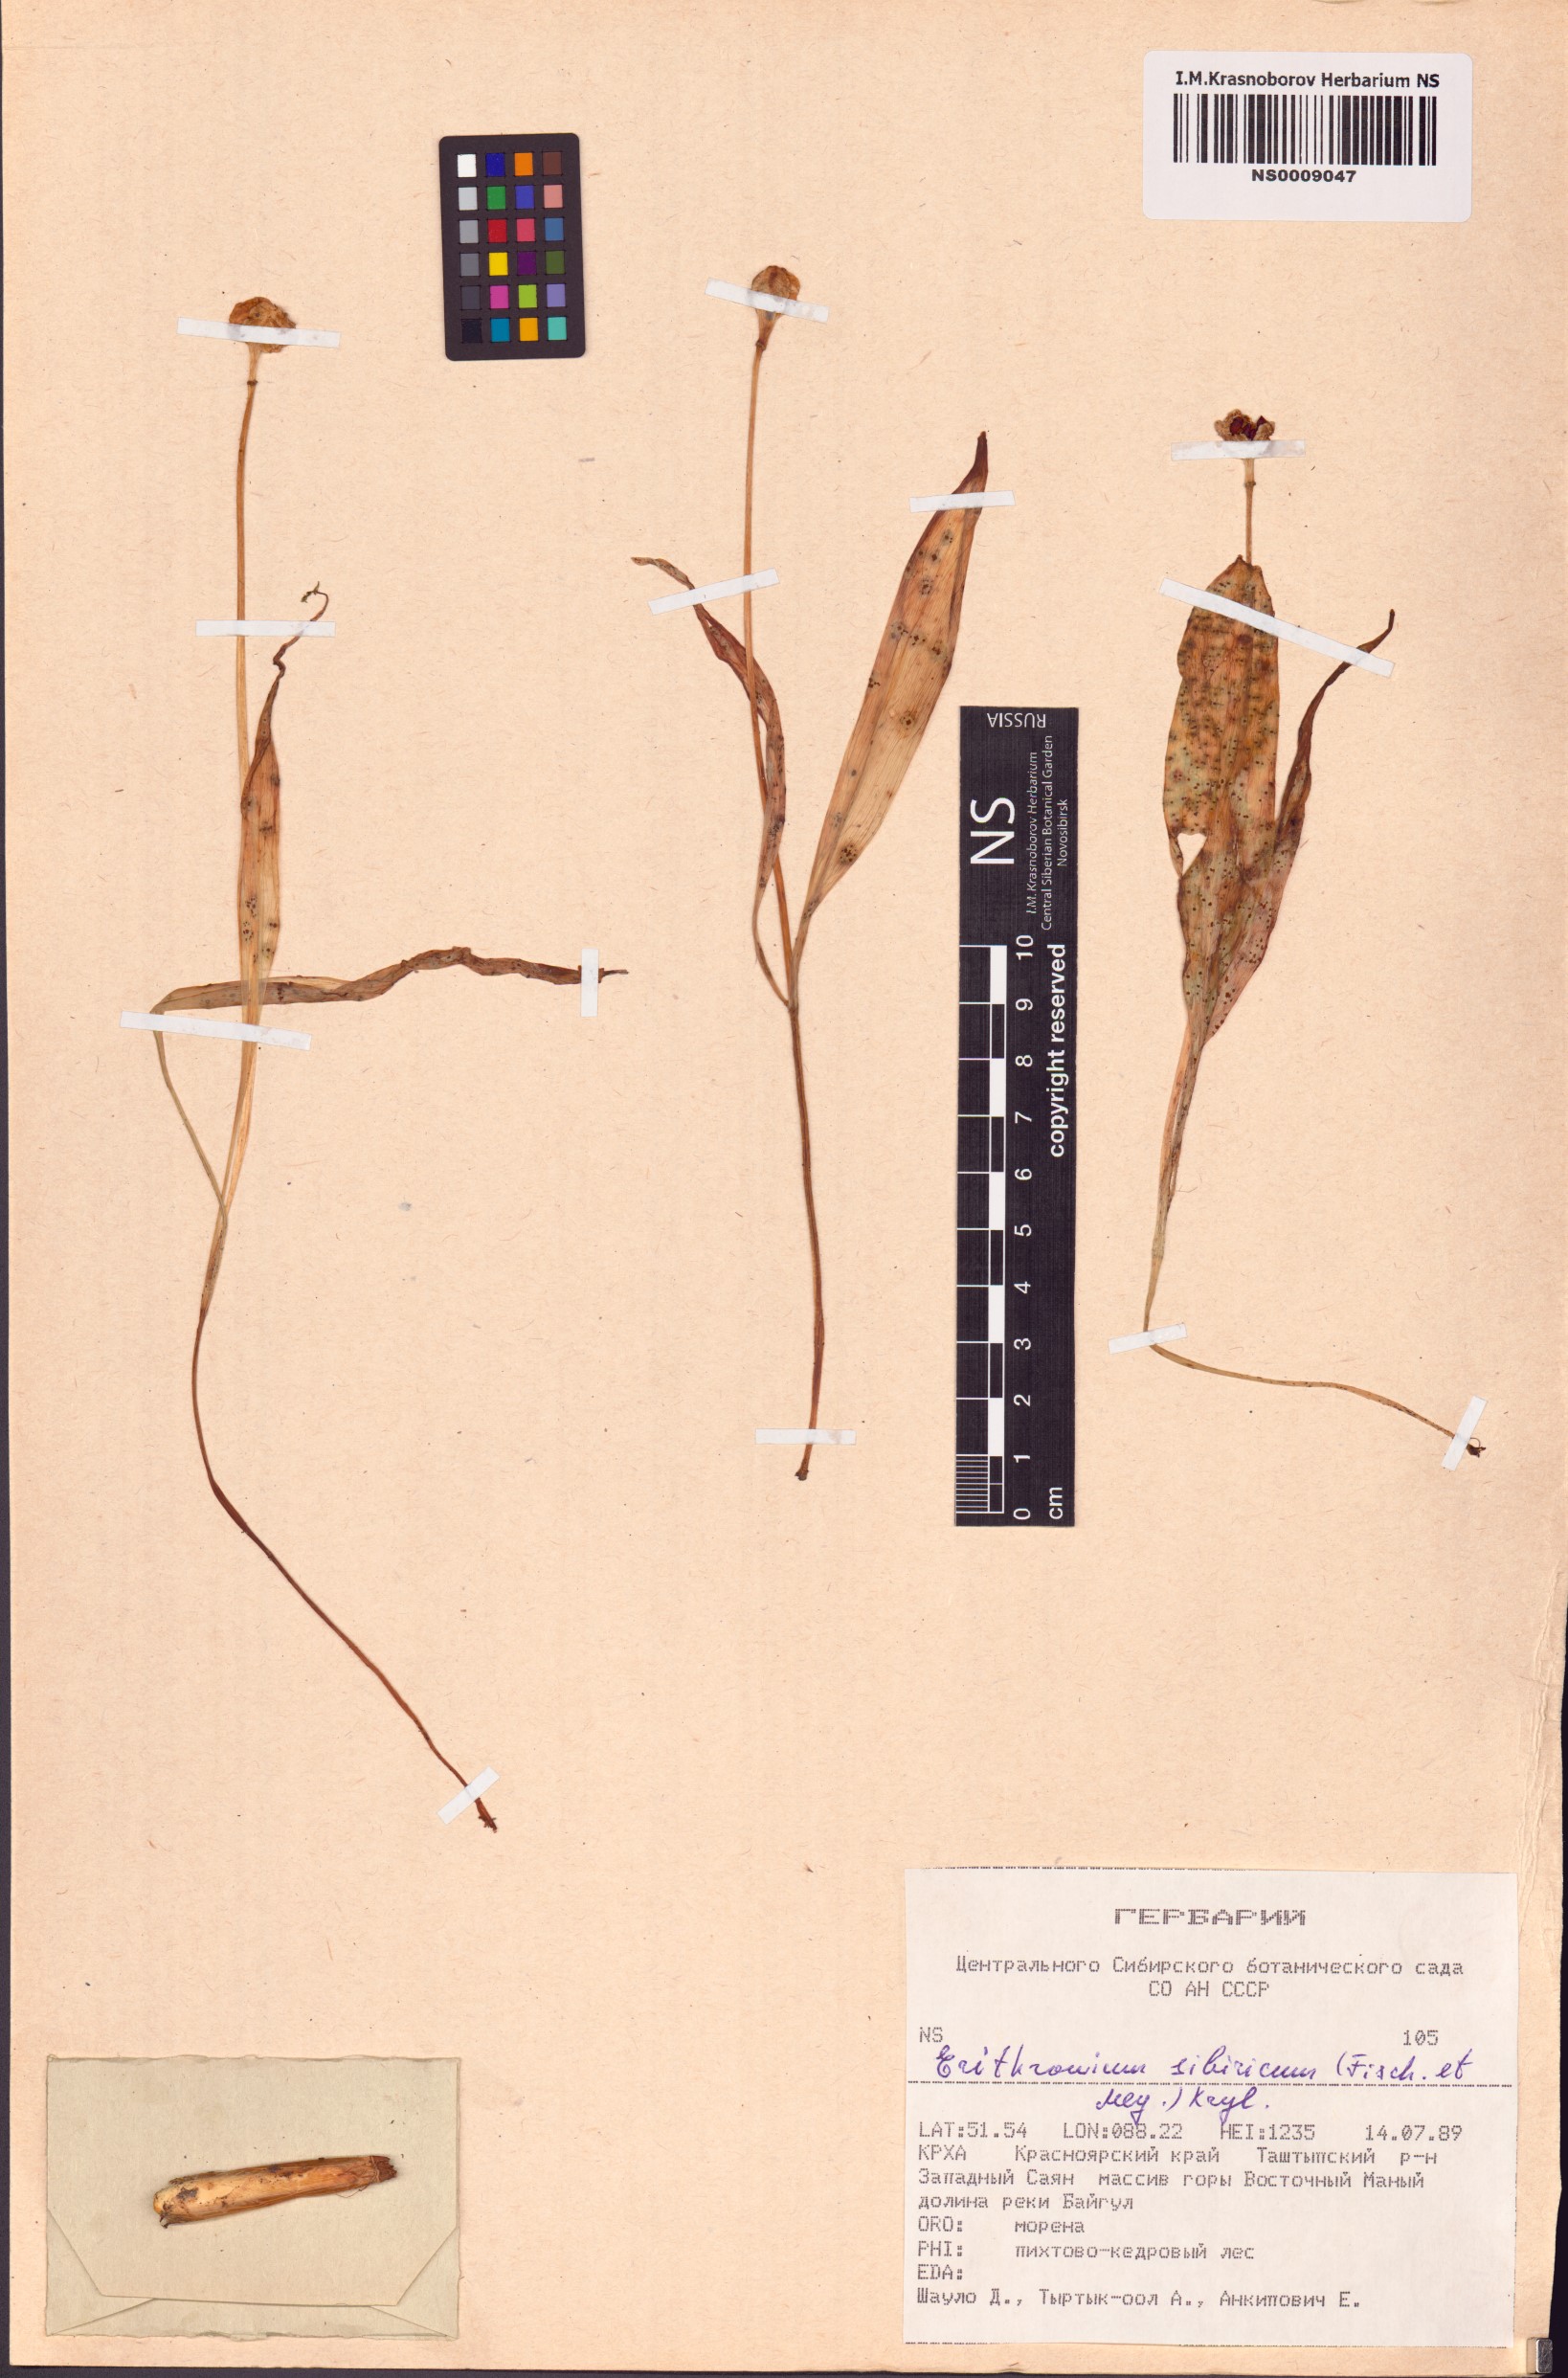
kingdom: Plantae
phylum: Tracheophyta
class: Liliopsida
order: Liliales
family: Liliaceae
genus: Erythronium
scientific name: Erythronium sibiricum
